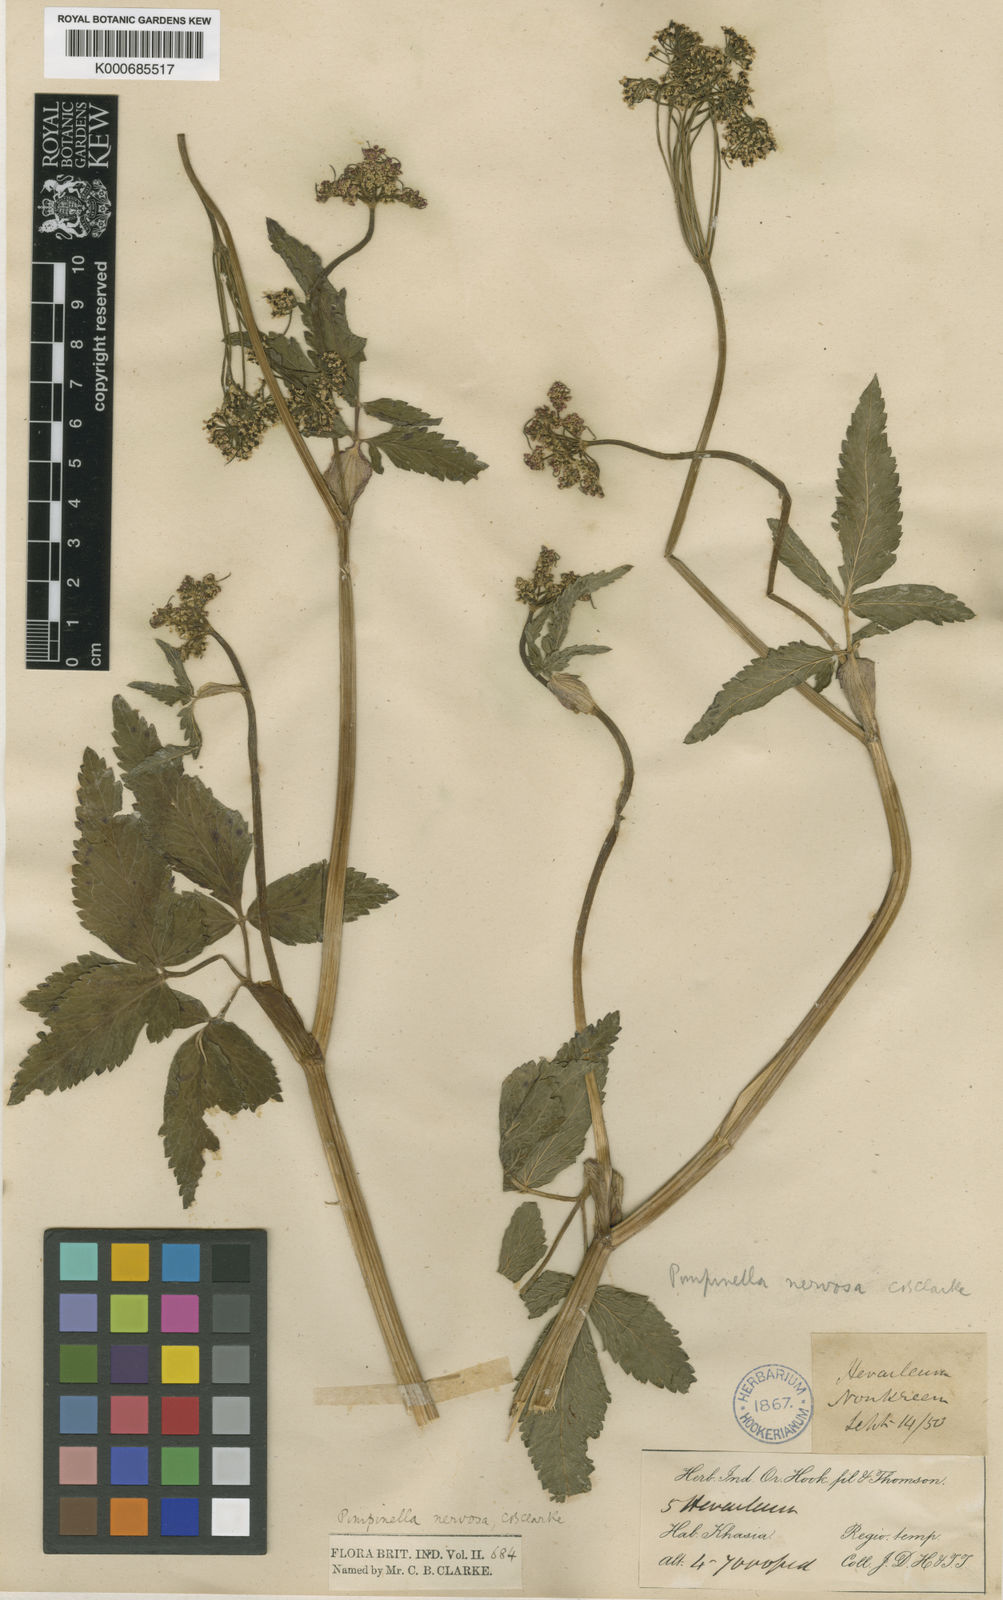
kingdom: Plantae
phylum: Tracheophyta
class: Magnoliopsida
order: Apiales
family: Apiaceae
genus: Pimpinella
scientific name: Pimpinella nervosa
